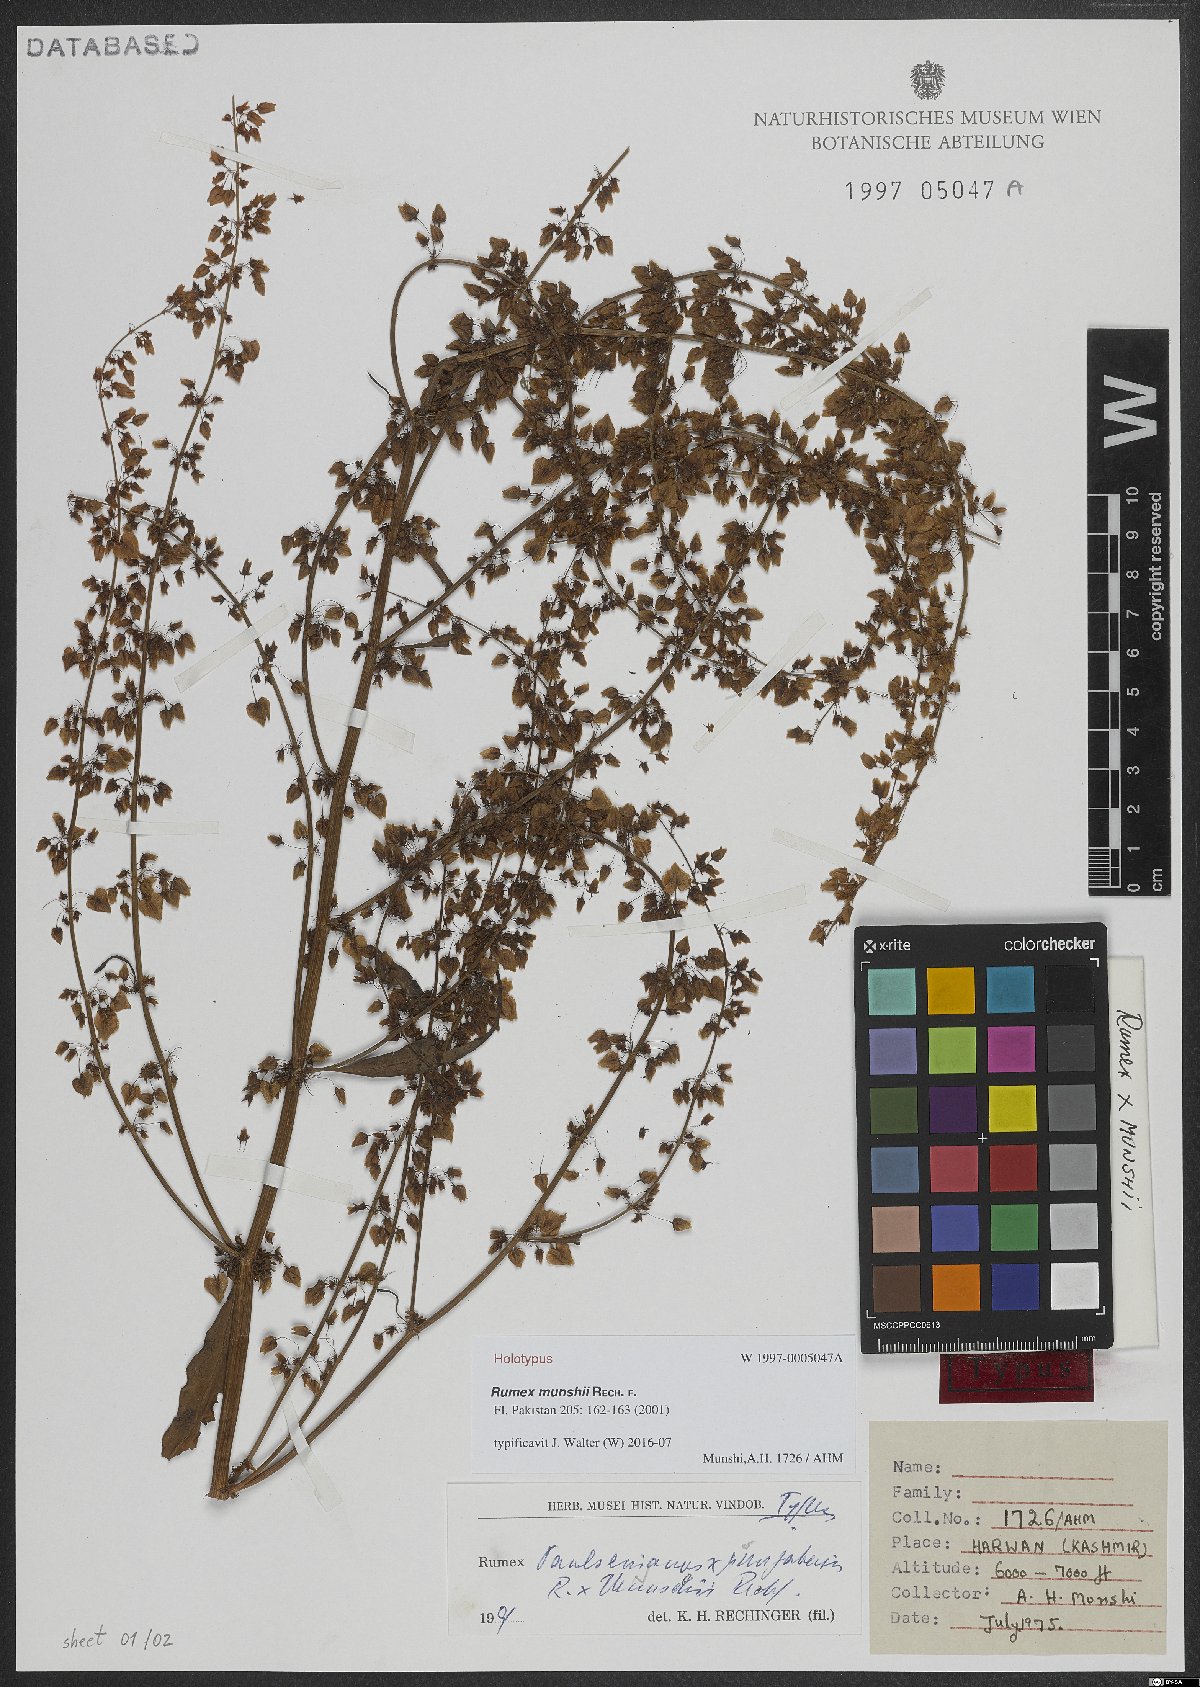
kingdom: Plantae
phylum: Tracheophyta
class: Magnoliopsida
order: Caryophyllales
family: Polygonaceae
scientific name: Polygonaceae
